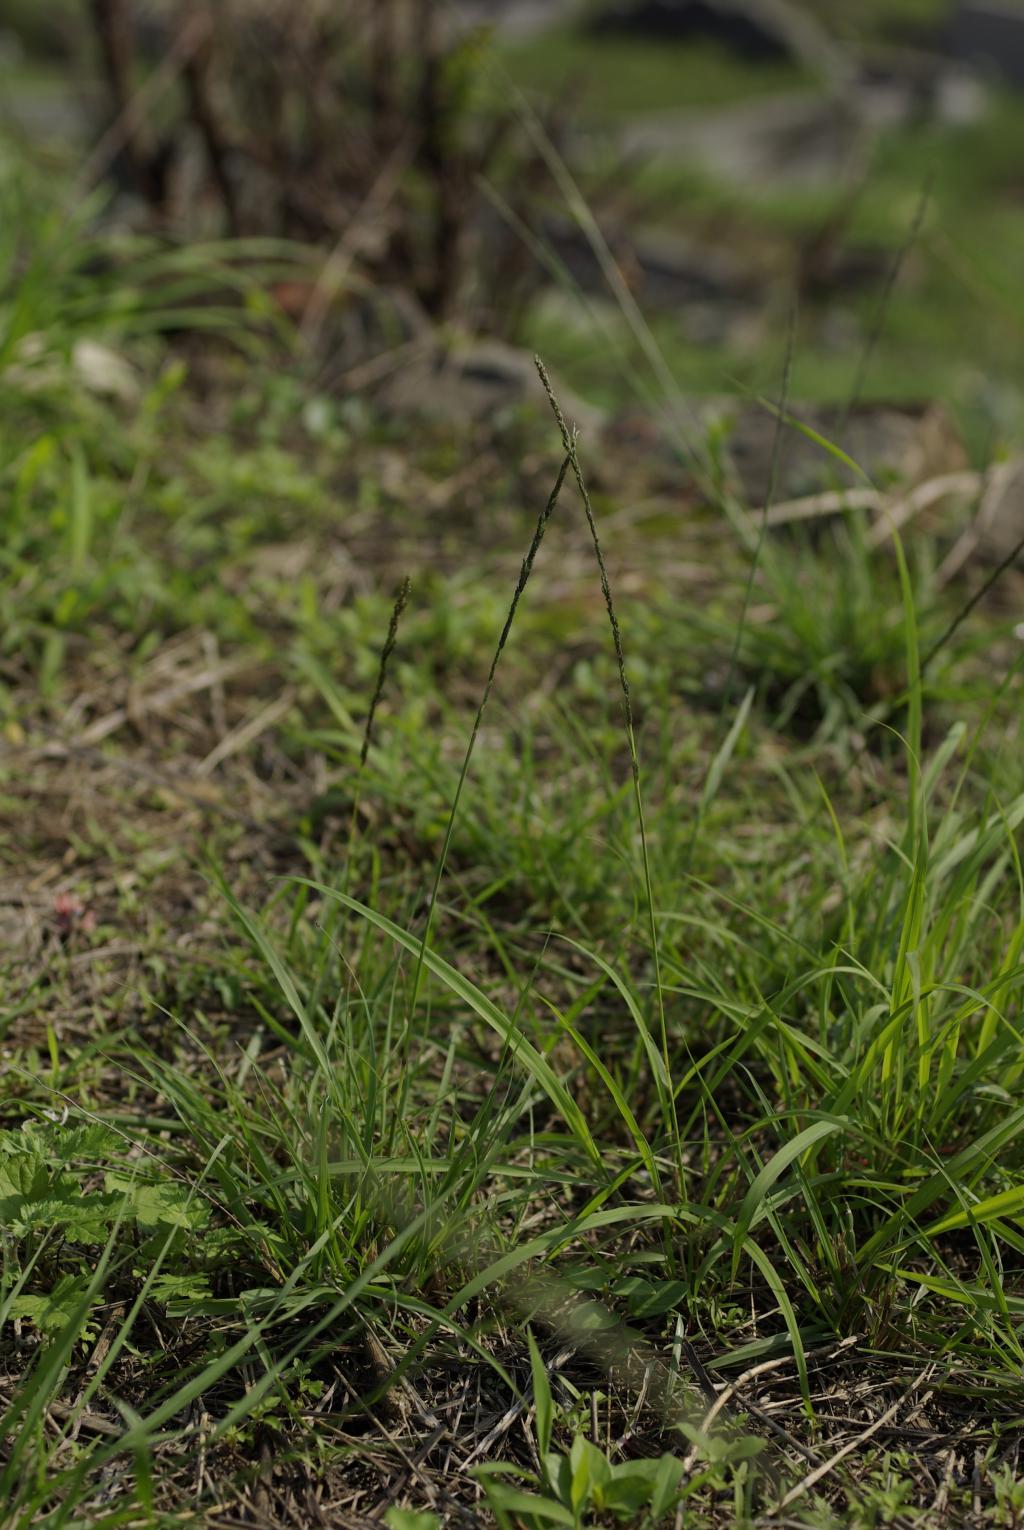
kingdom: Plantae
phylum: Tracheophyta
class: Liliopsida
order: Poales
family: Poaceae
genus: Sporobolus
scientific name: Sporobolus diandrus
